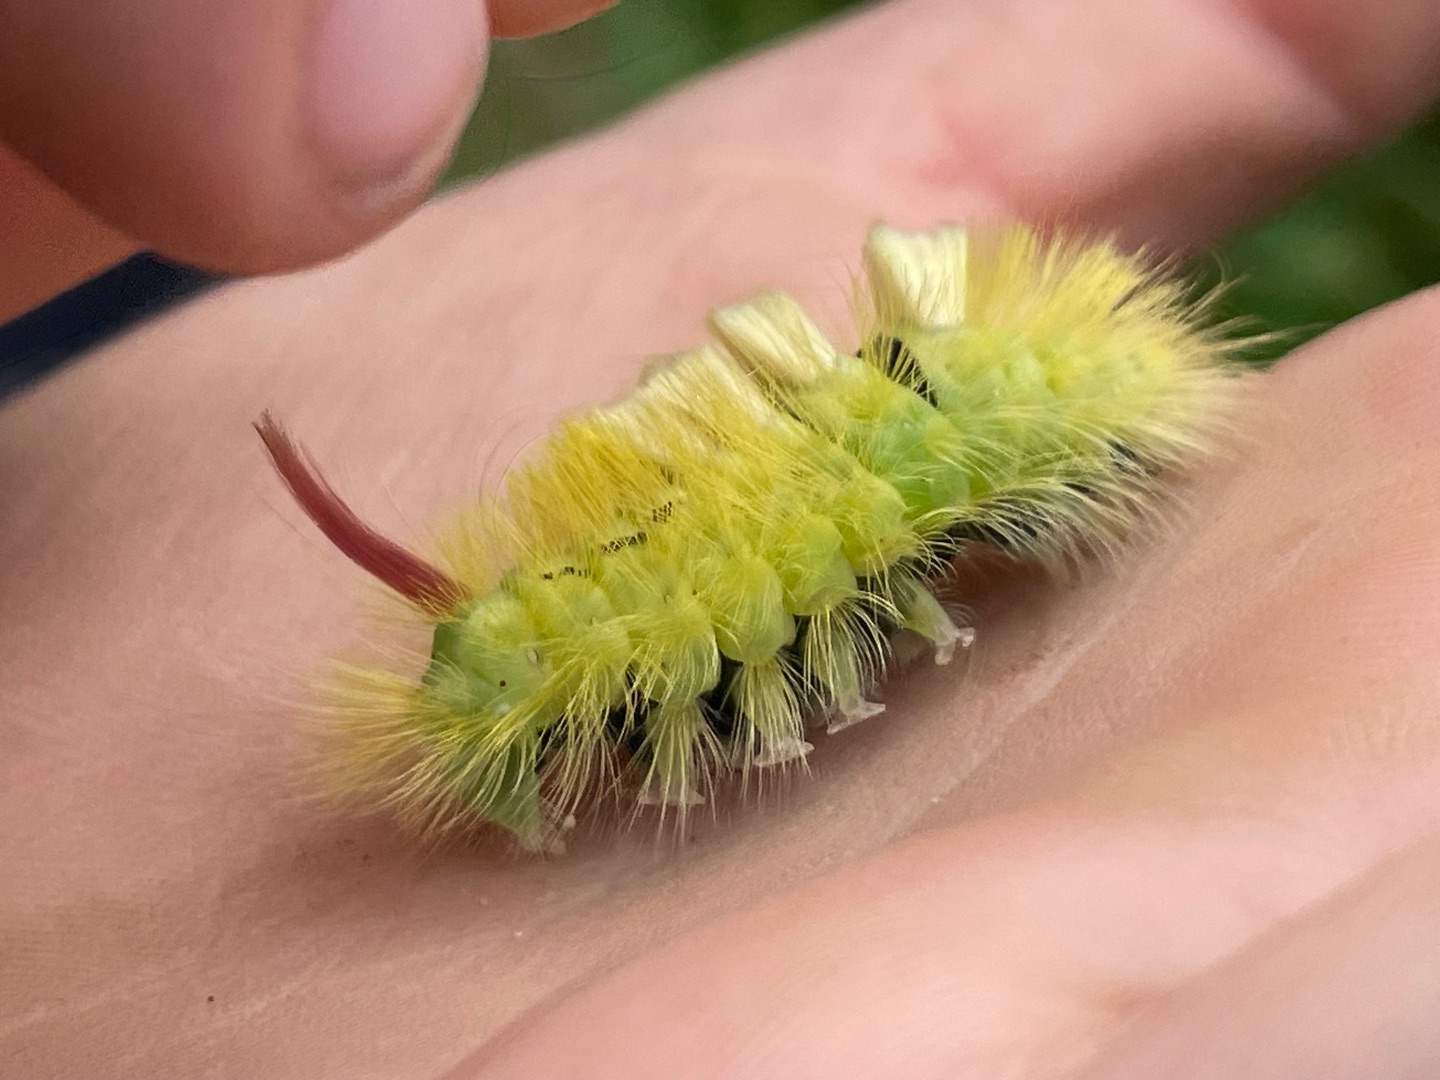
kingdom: Animalia
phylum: Arthropoda
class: Insecta
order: Lepidoptera
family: Erebidae
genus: Calliteara
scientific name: Calliteara pudibunda
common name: Bøgenonne
